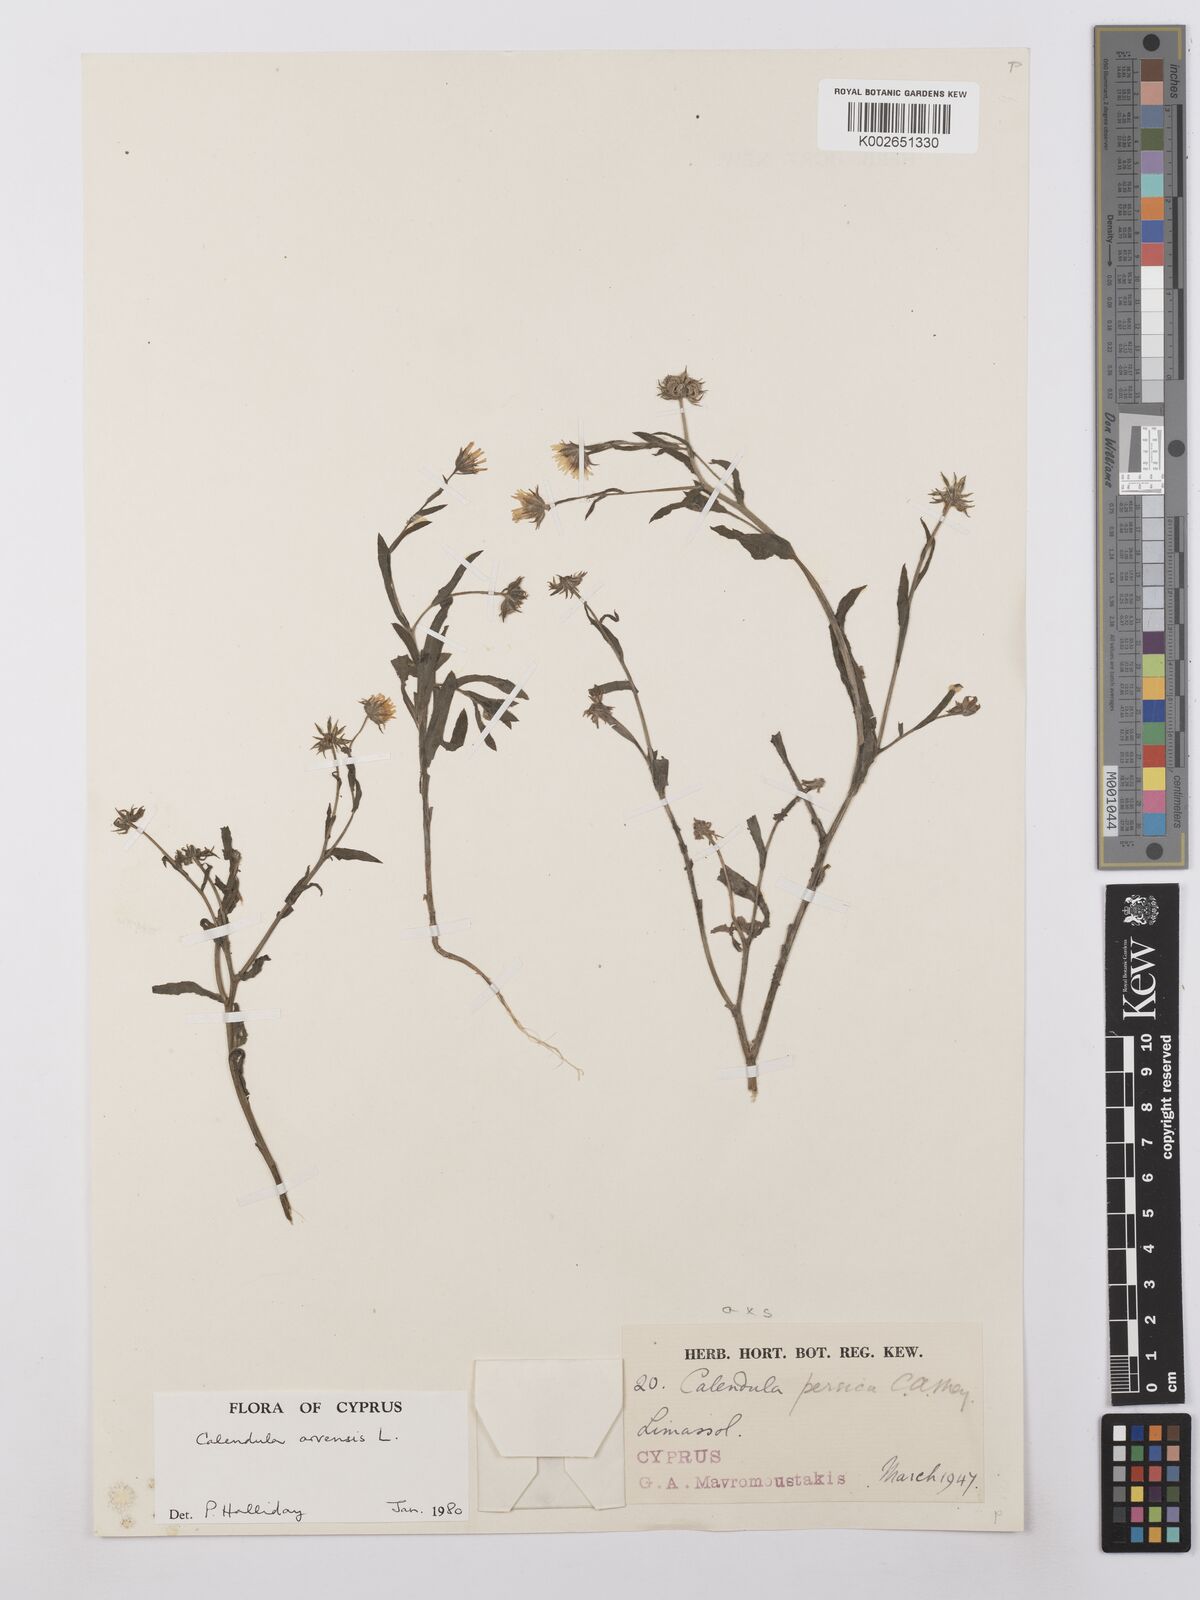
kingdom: Plantae
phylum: Tracheophyta
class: Magnoliopsida
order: Asterales
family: Asteraceae
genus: Calendula
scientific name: Calendula arvensis
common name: Field marigold
